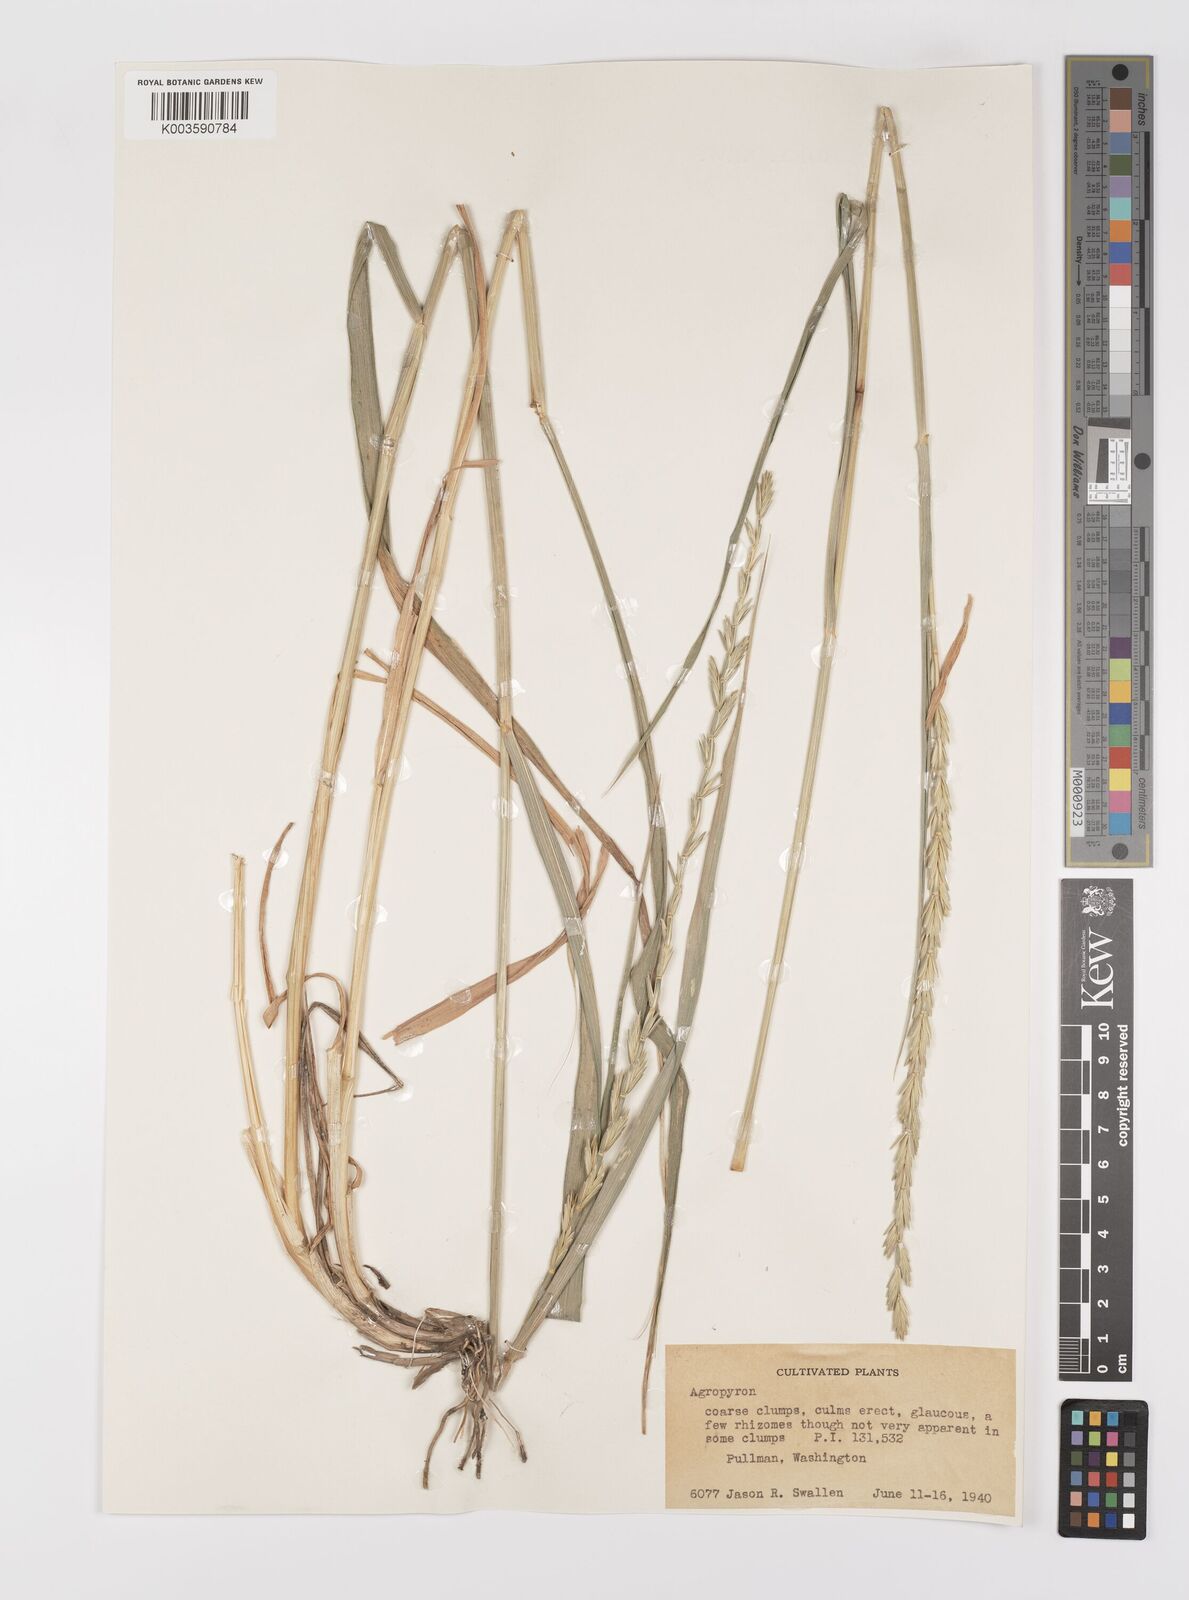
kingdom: Plantae
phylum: Tracheophyta
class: Liliopsida
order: Poales
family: Poaceae
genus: Elymus
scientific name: Elymus
